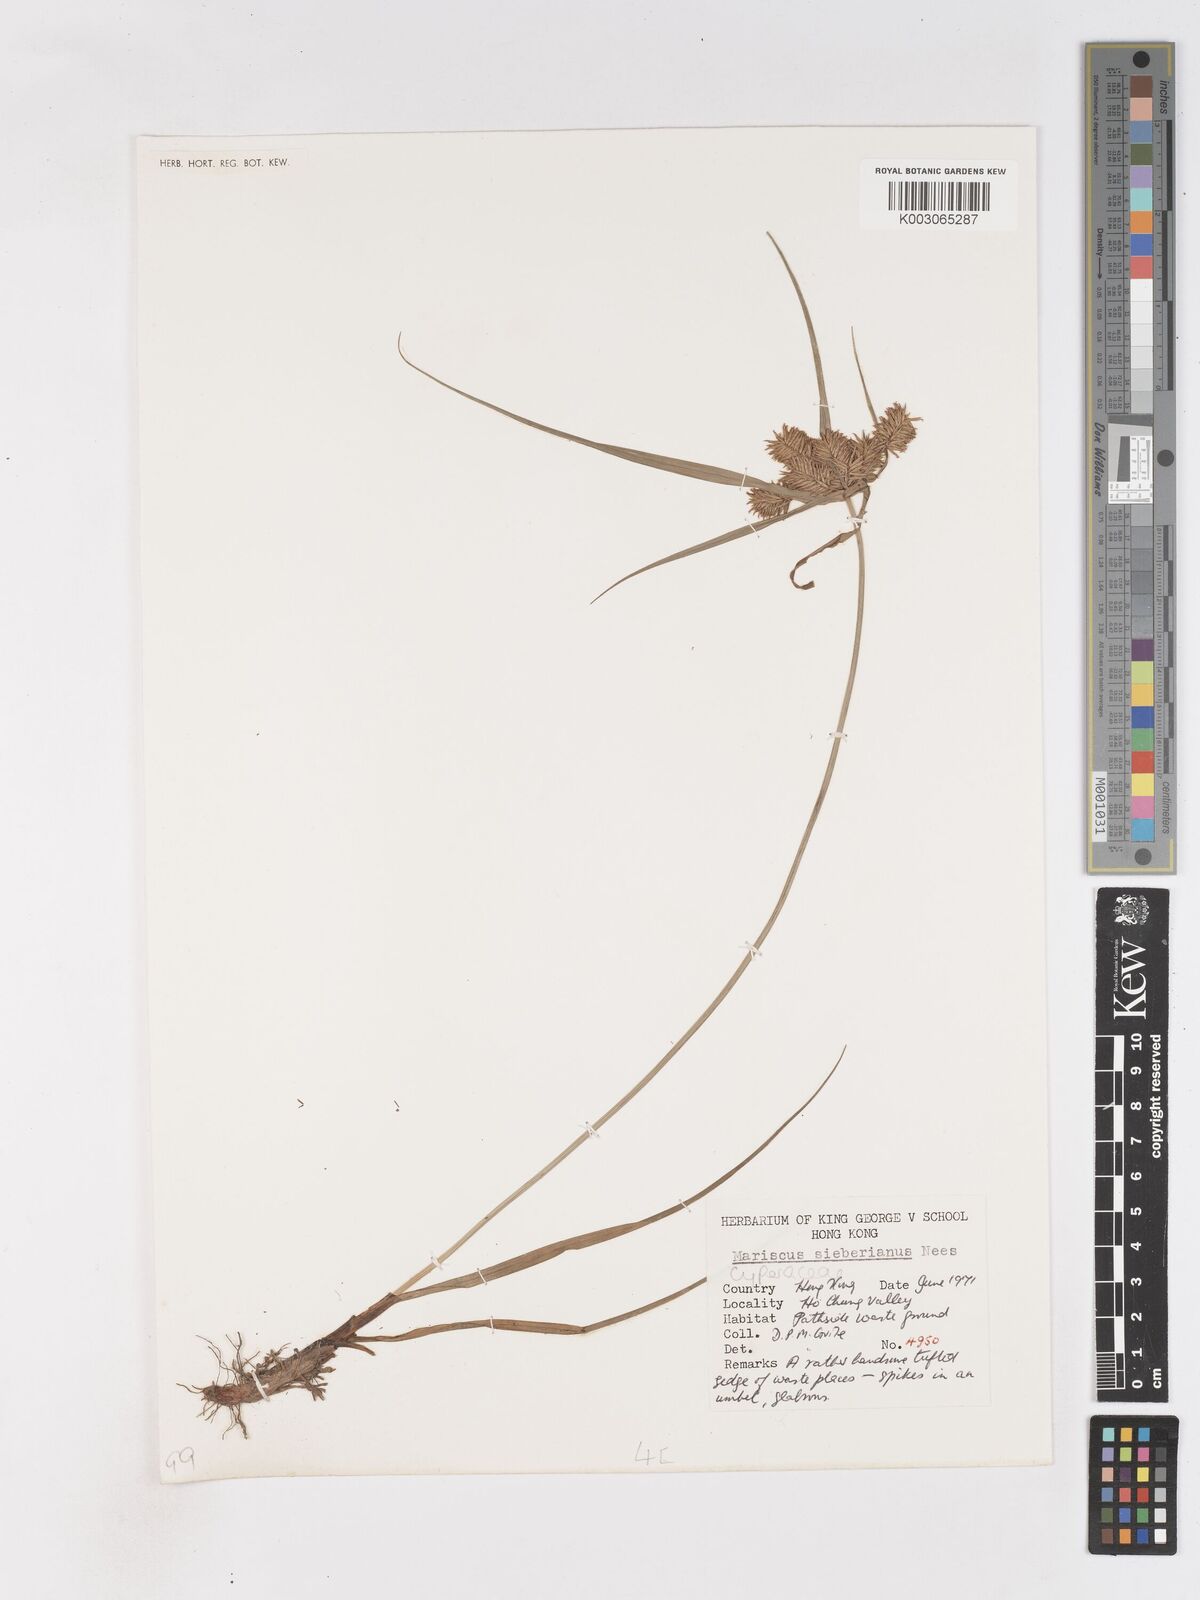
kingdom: Plantae
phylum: Tracheophyta
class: Liliopsida
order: Poales
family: Cyperaceae
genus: Cyperus
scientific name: Cyperus cyperoides
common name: Pacific island flat sedge
